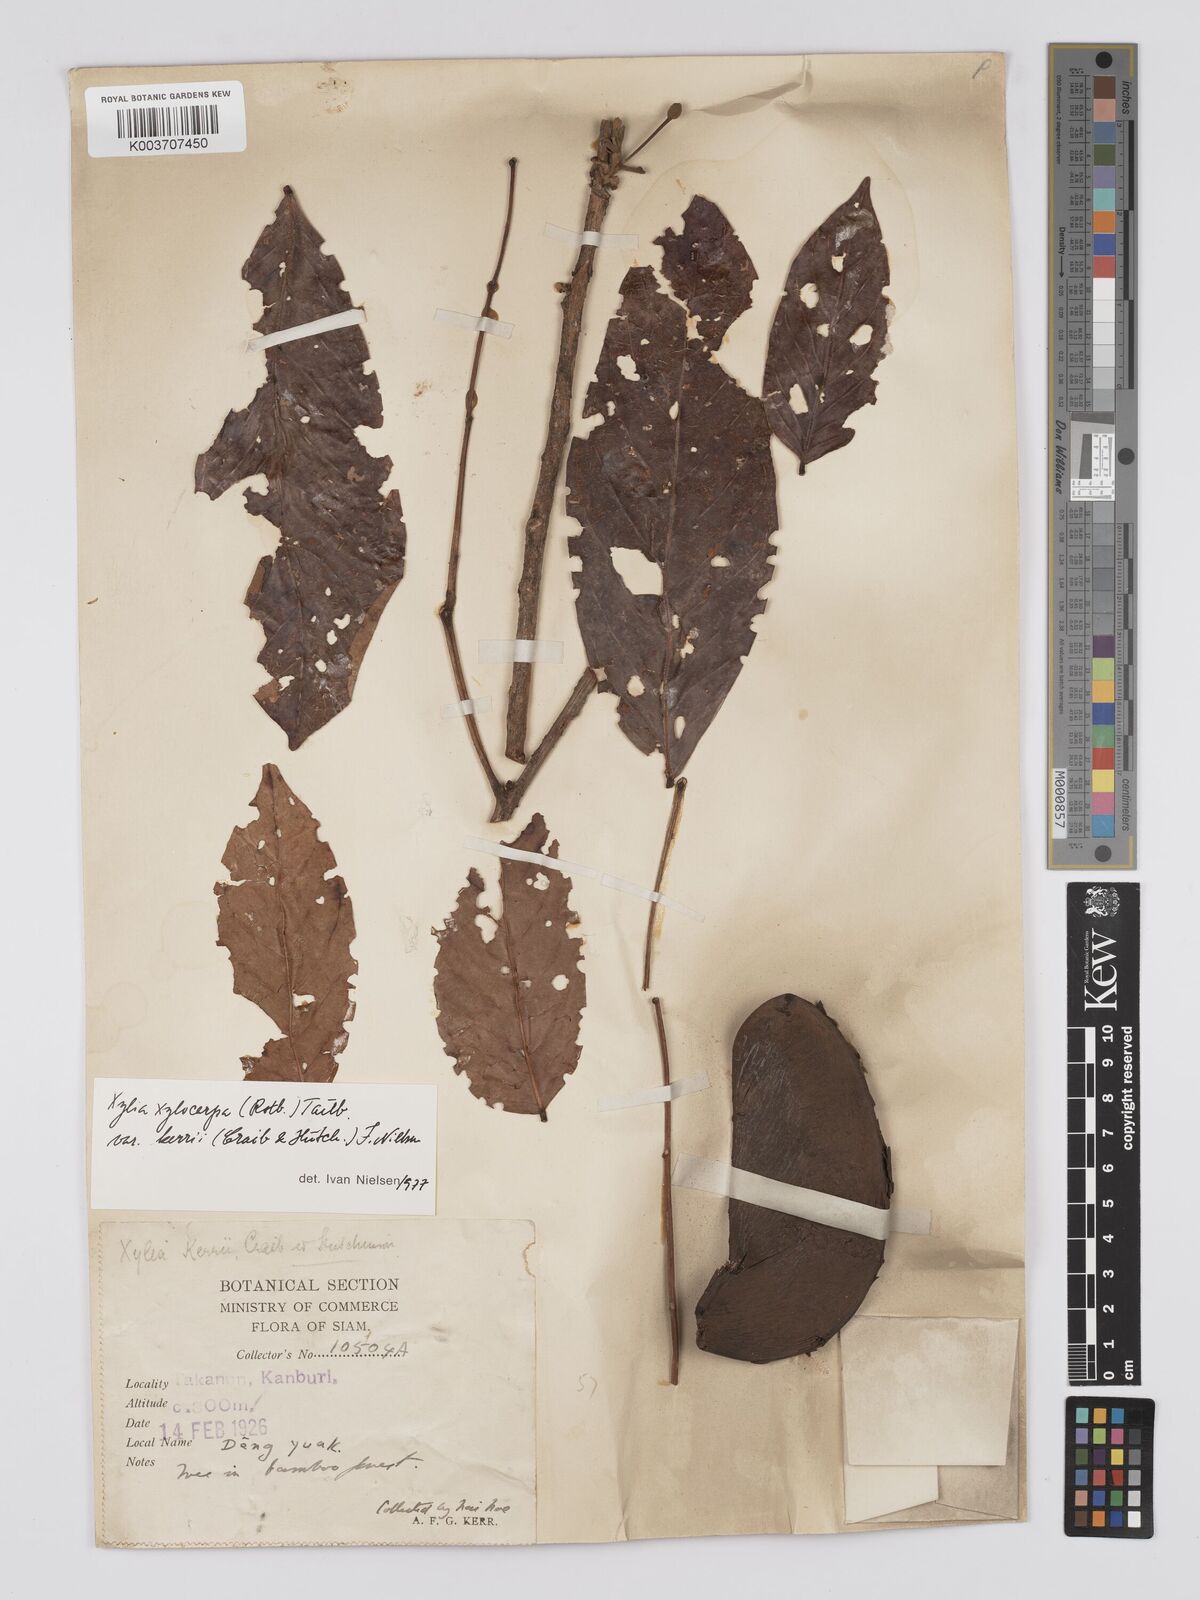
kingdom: Plantae
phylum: Tracheophyta
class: Magnoliopsida
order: Fabales
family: Fabaceae
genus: Xylia
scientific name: Xylia xylocarpa
